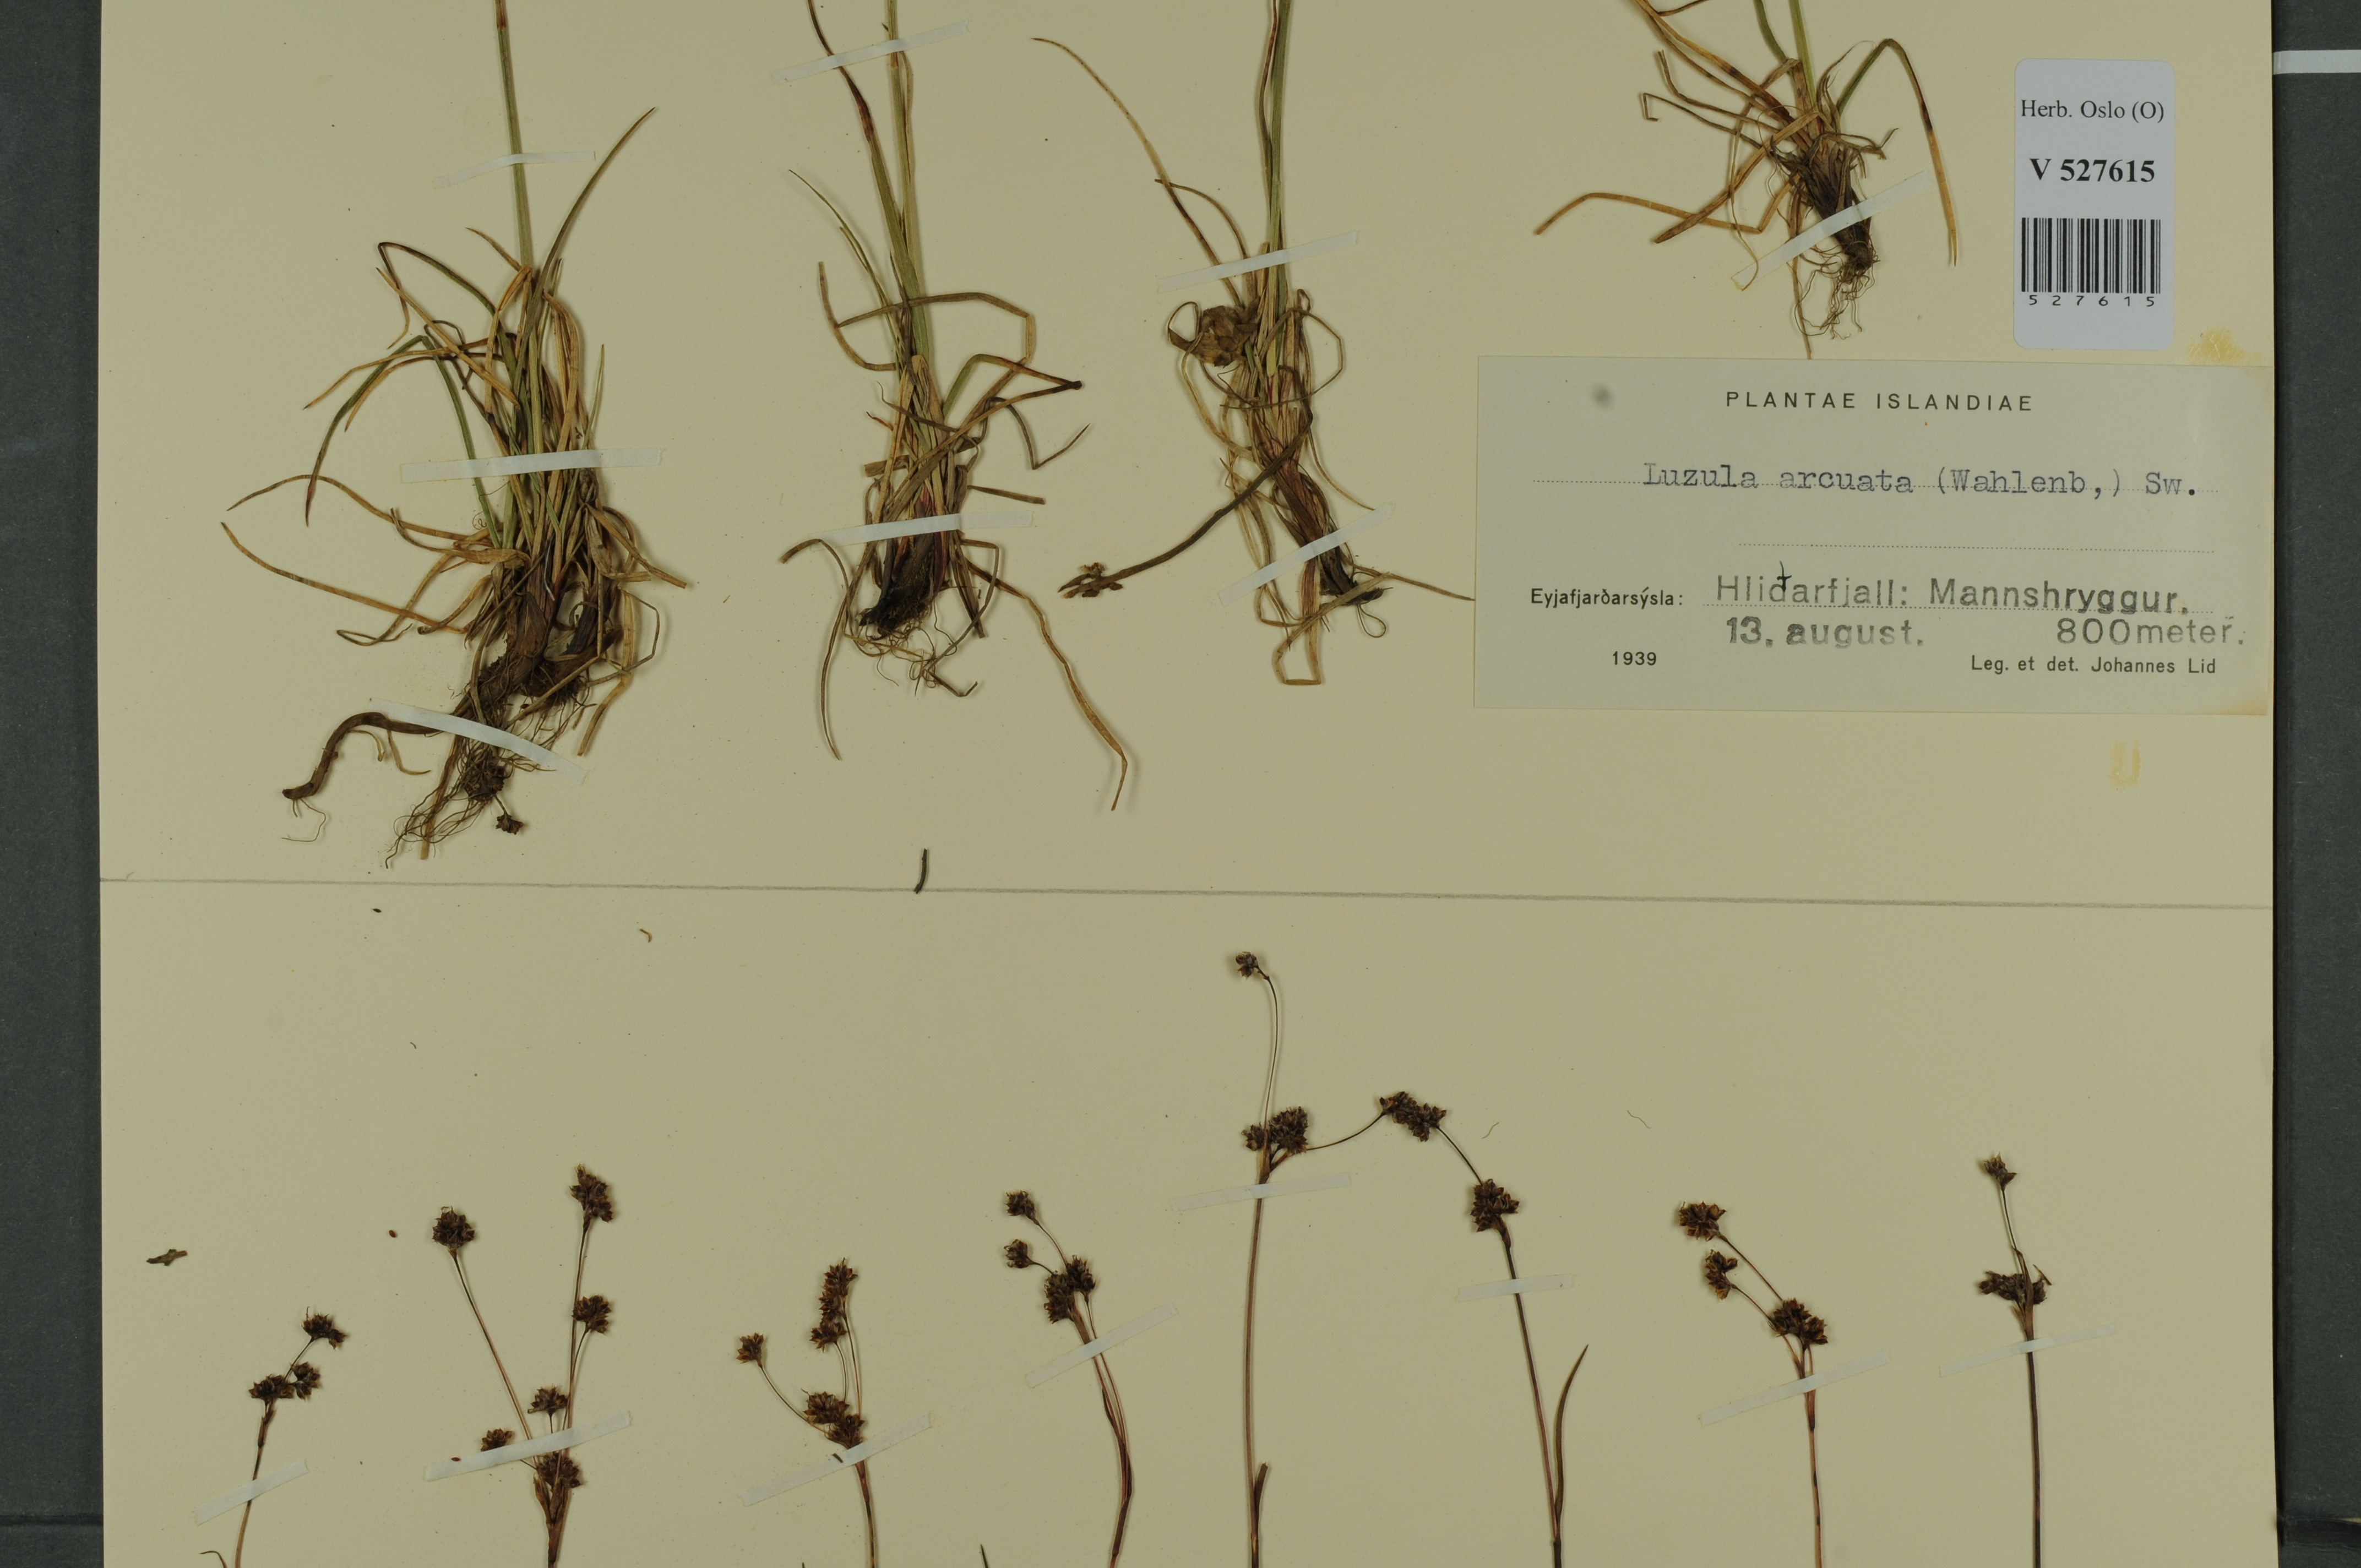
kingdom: Plantae
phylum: Tracheophyta
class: Liliopsida
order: Poales
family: Juncaceae
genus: Luzula
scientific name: Luzula arcuata
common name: Curved wood-rush
